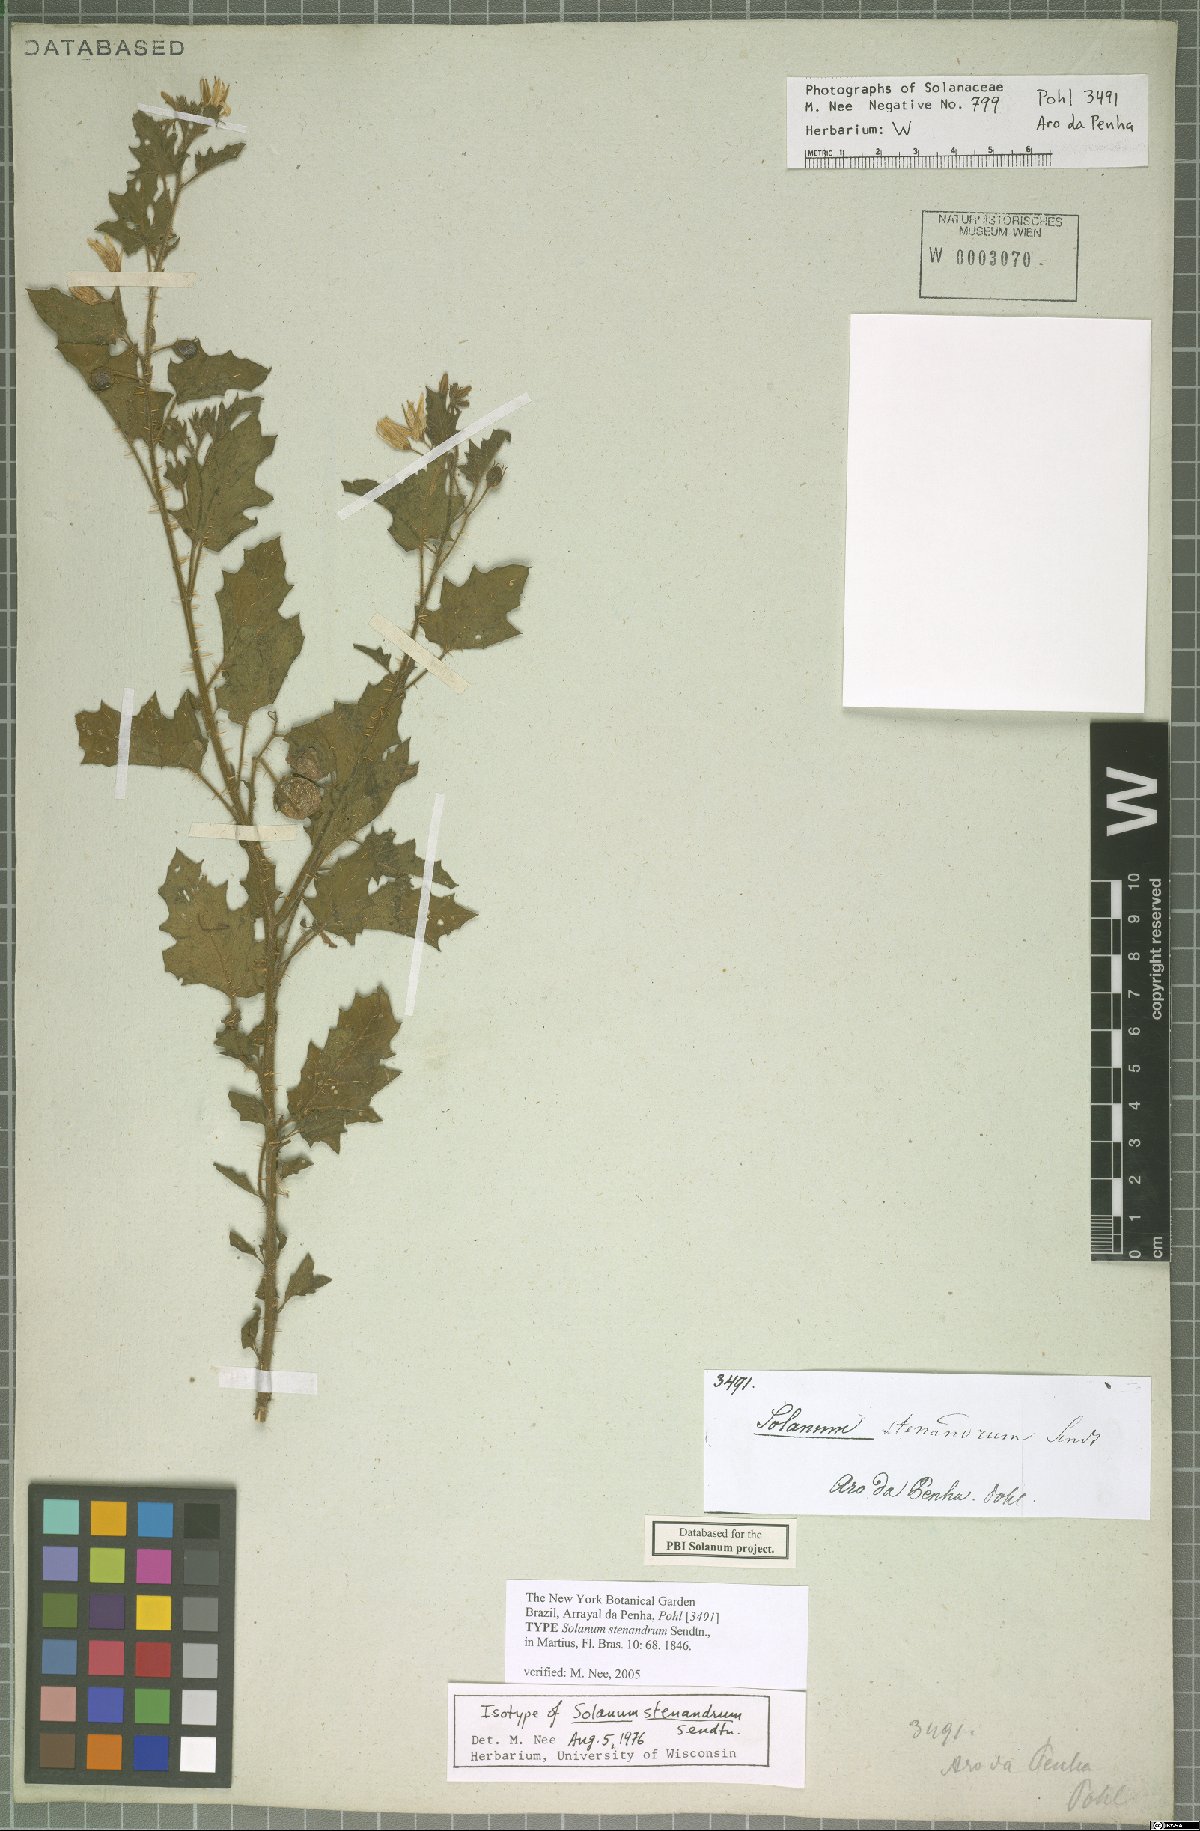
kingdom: Plantae
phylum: Tracheophyta
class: Magnoliopsida
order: Solanales
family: Solanaceae
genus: Solanum
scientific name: Solanum stenandrum
